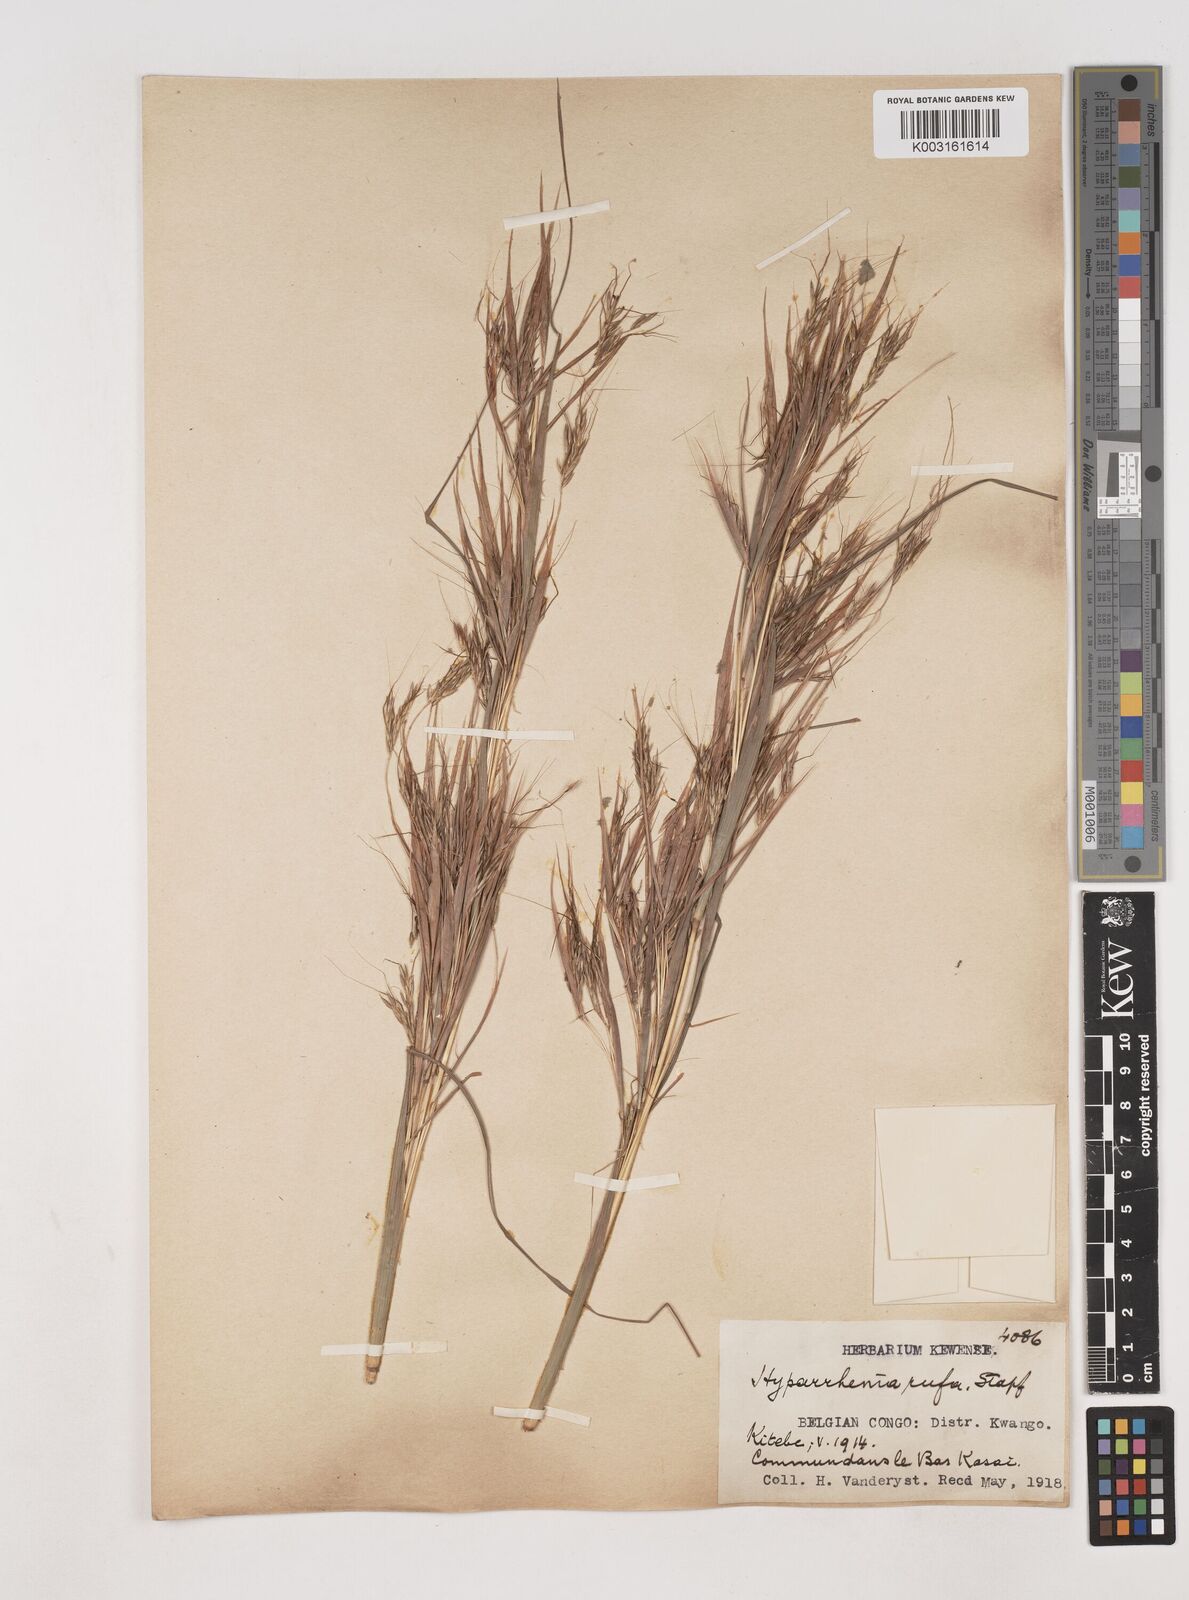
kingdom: Plantae
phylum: Tracheophyta
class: Liliopsida
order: Poales
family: Poaceae
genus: Hyparrhenia
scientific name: Hyparrhenia rufa
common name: Jaraguagrass
